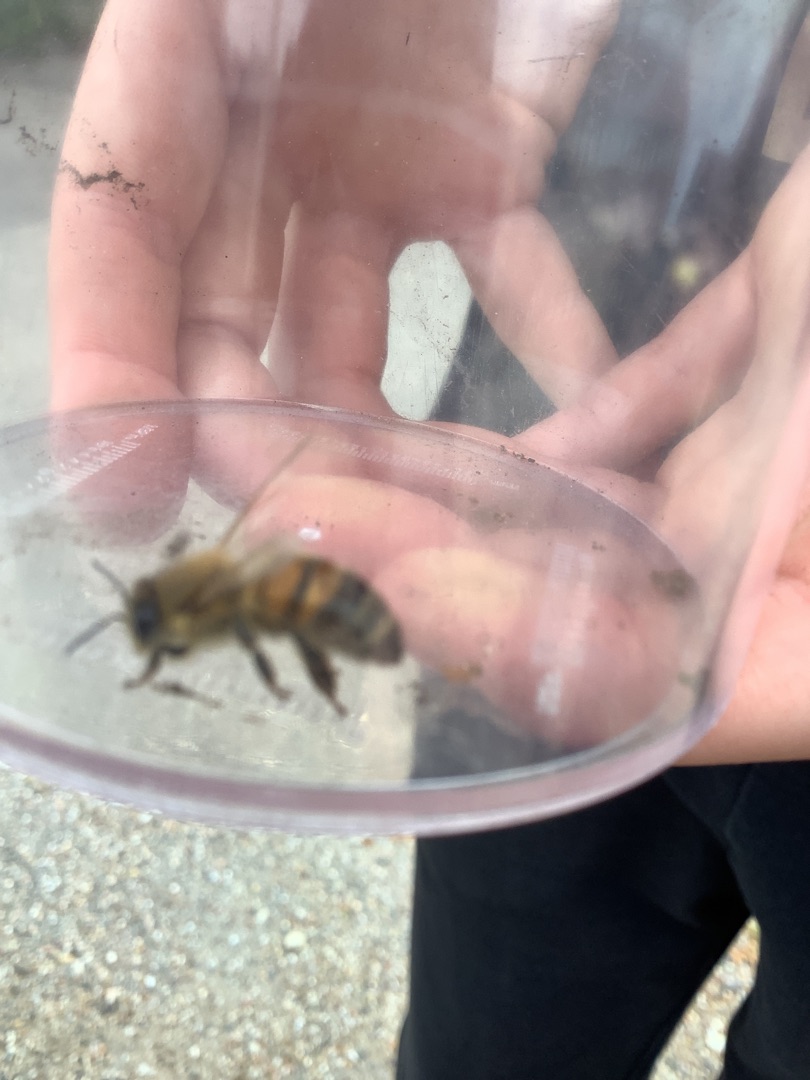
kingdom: Animalia
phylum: Arthropoda
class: Insecta
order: Hymenoptera
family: Apidae
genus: Apis
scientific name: Apis mellifera
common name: Honningbi
